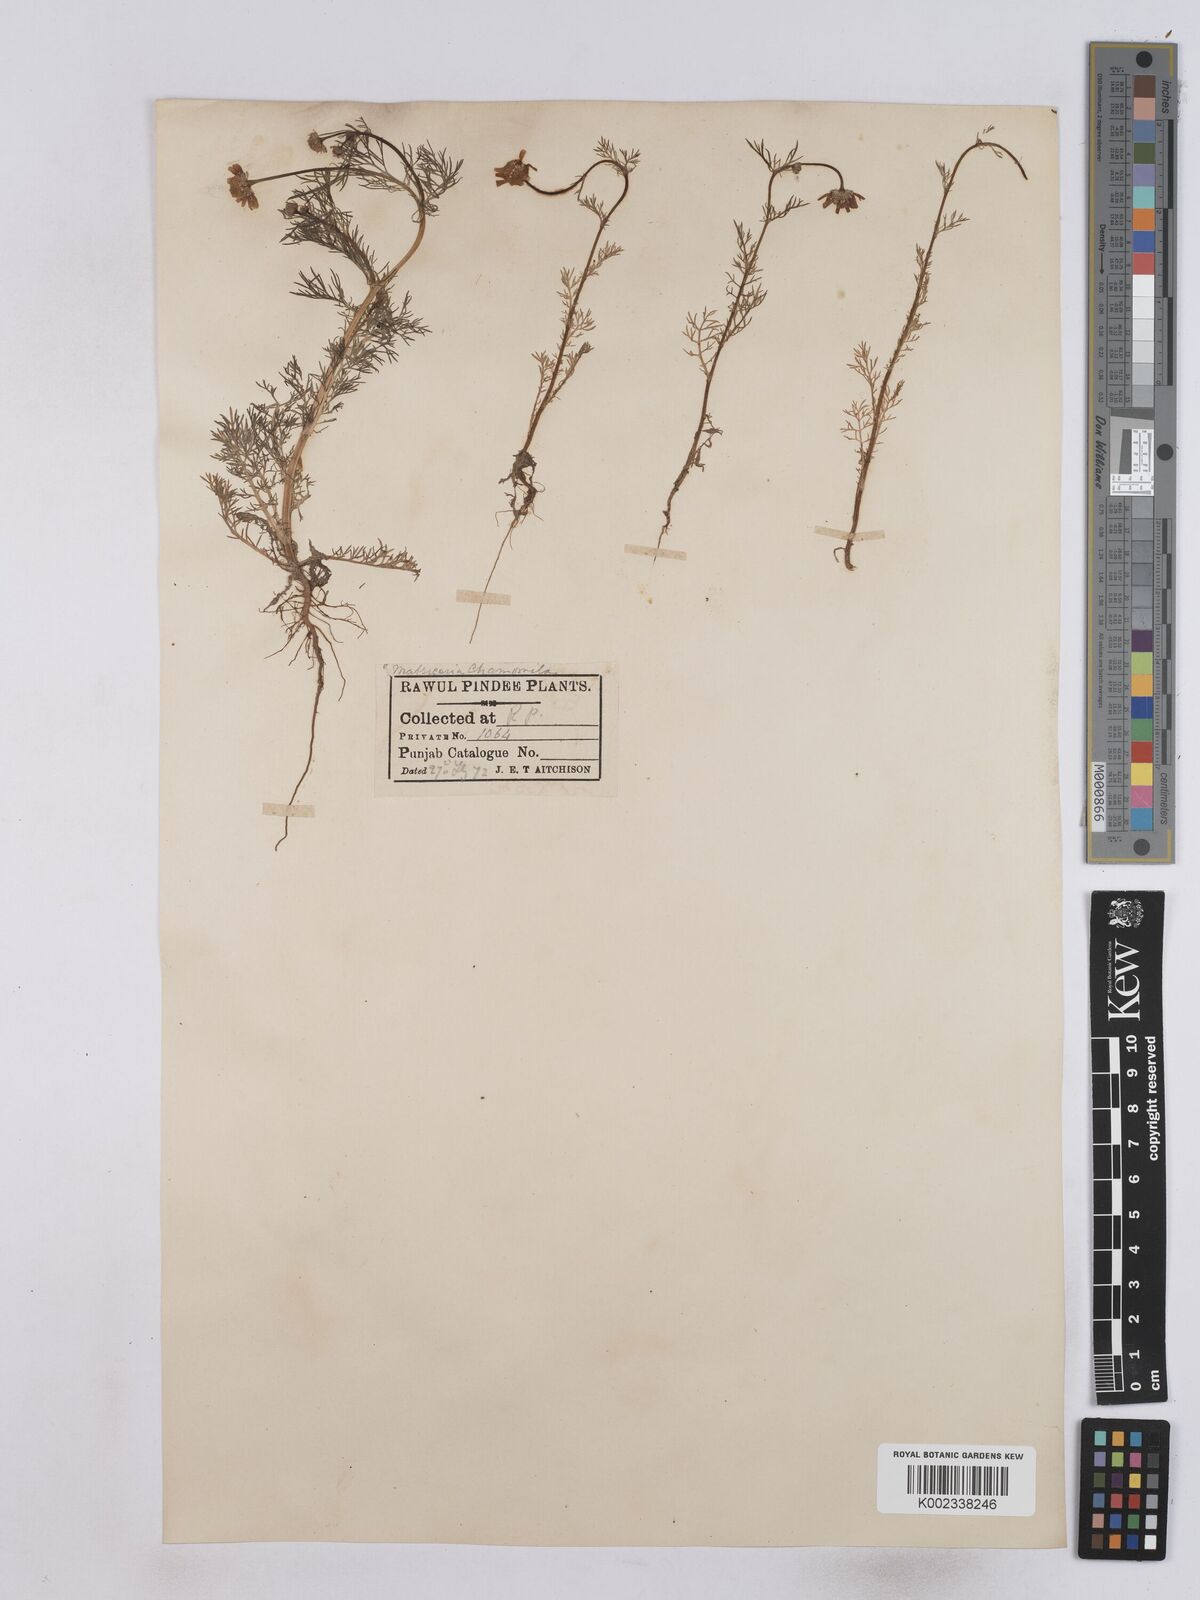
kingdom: Plantae
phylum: Tracheophyta
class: Magnoliopsida
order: Asterales
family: Asteraceae
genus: Matricaria
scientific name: Matricaria chamomilla
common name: Scented mayweed
